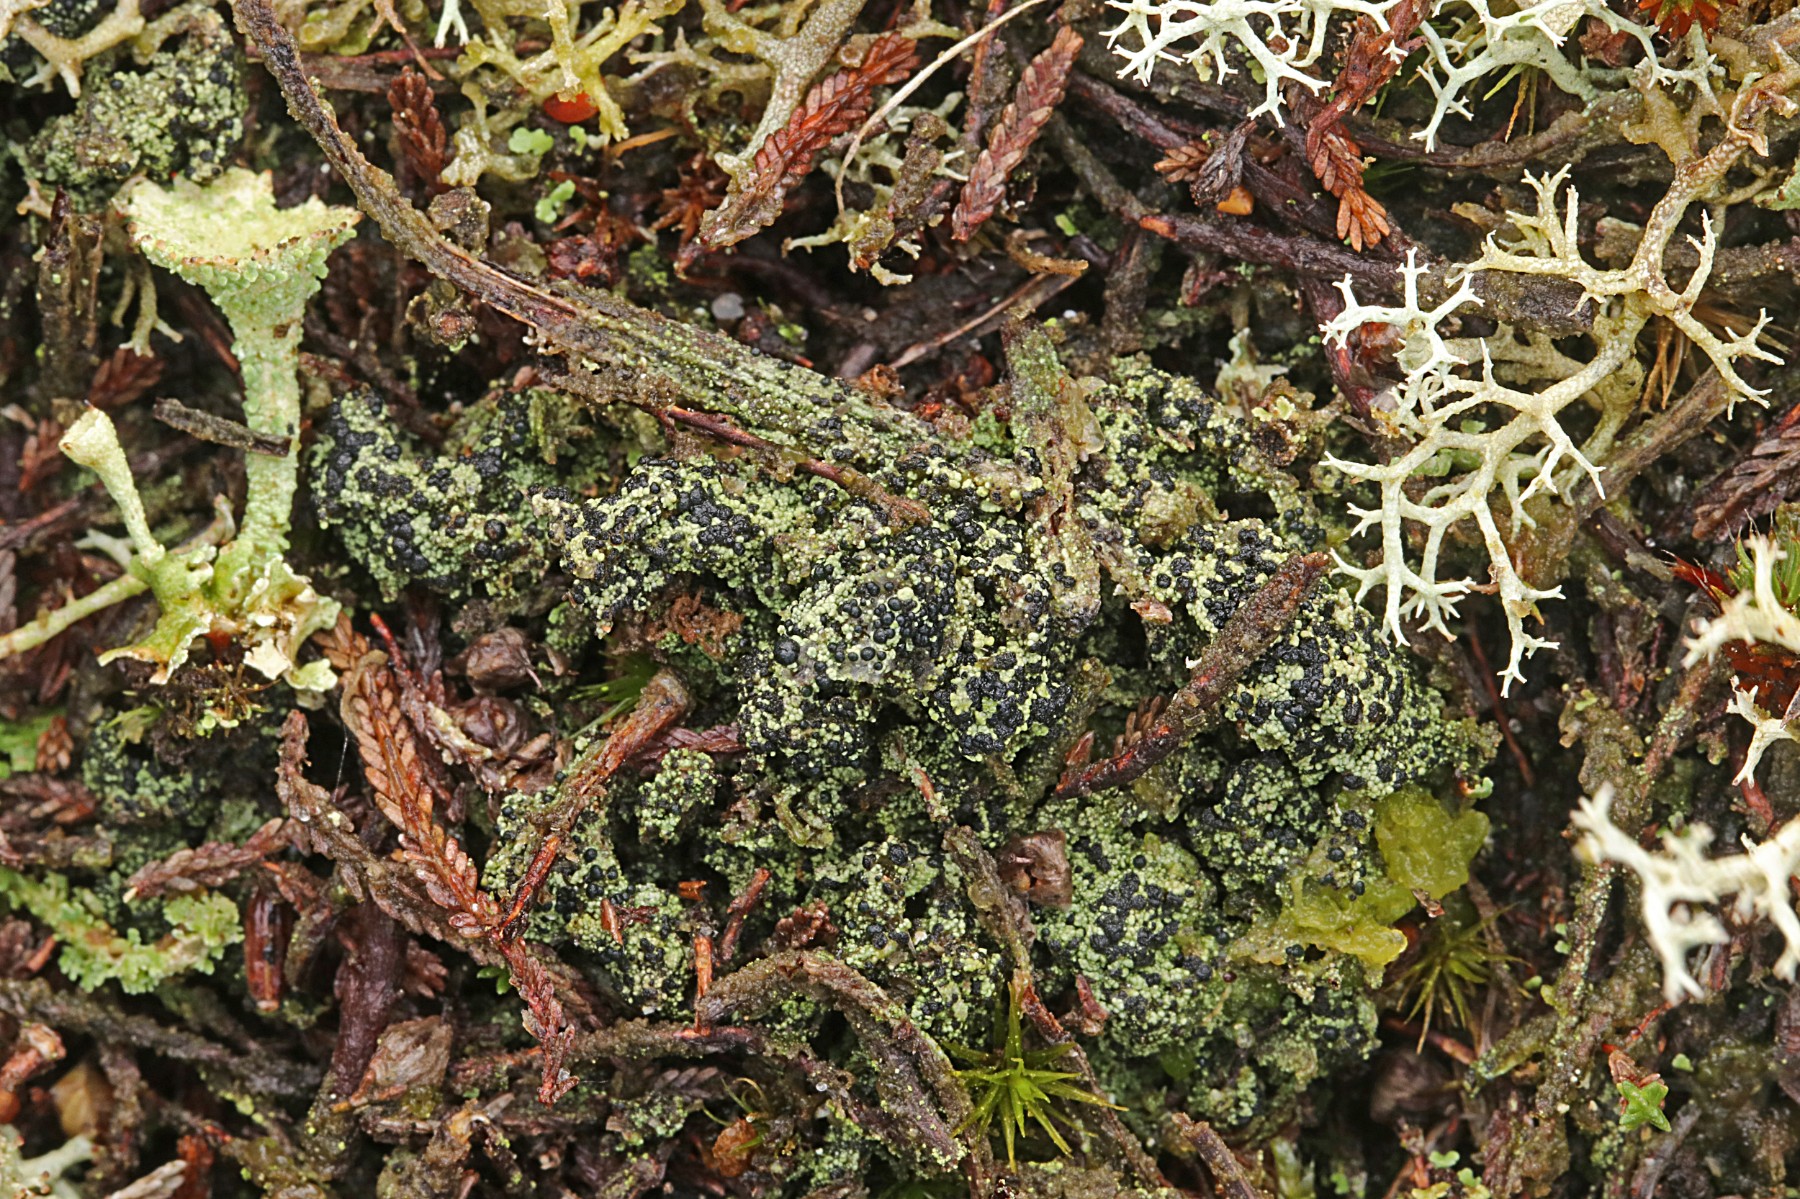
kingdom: Fungi
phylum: Ascomycota
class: Lecanoromycetes
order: Lecanorales
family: Byssolomataceae
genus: Micarea
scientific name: Micarea lignaria
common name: tørve-knaplav
